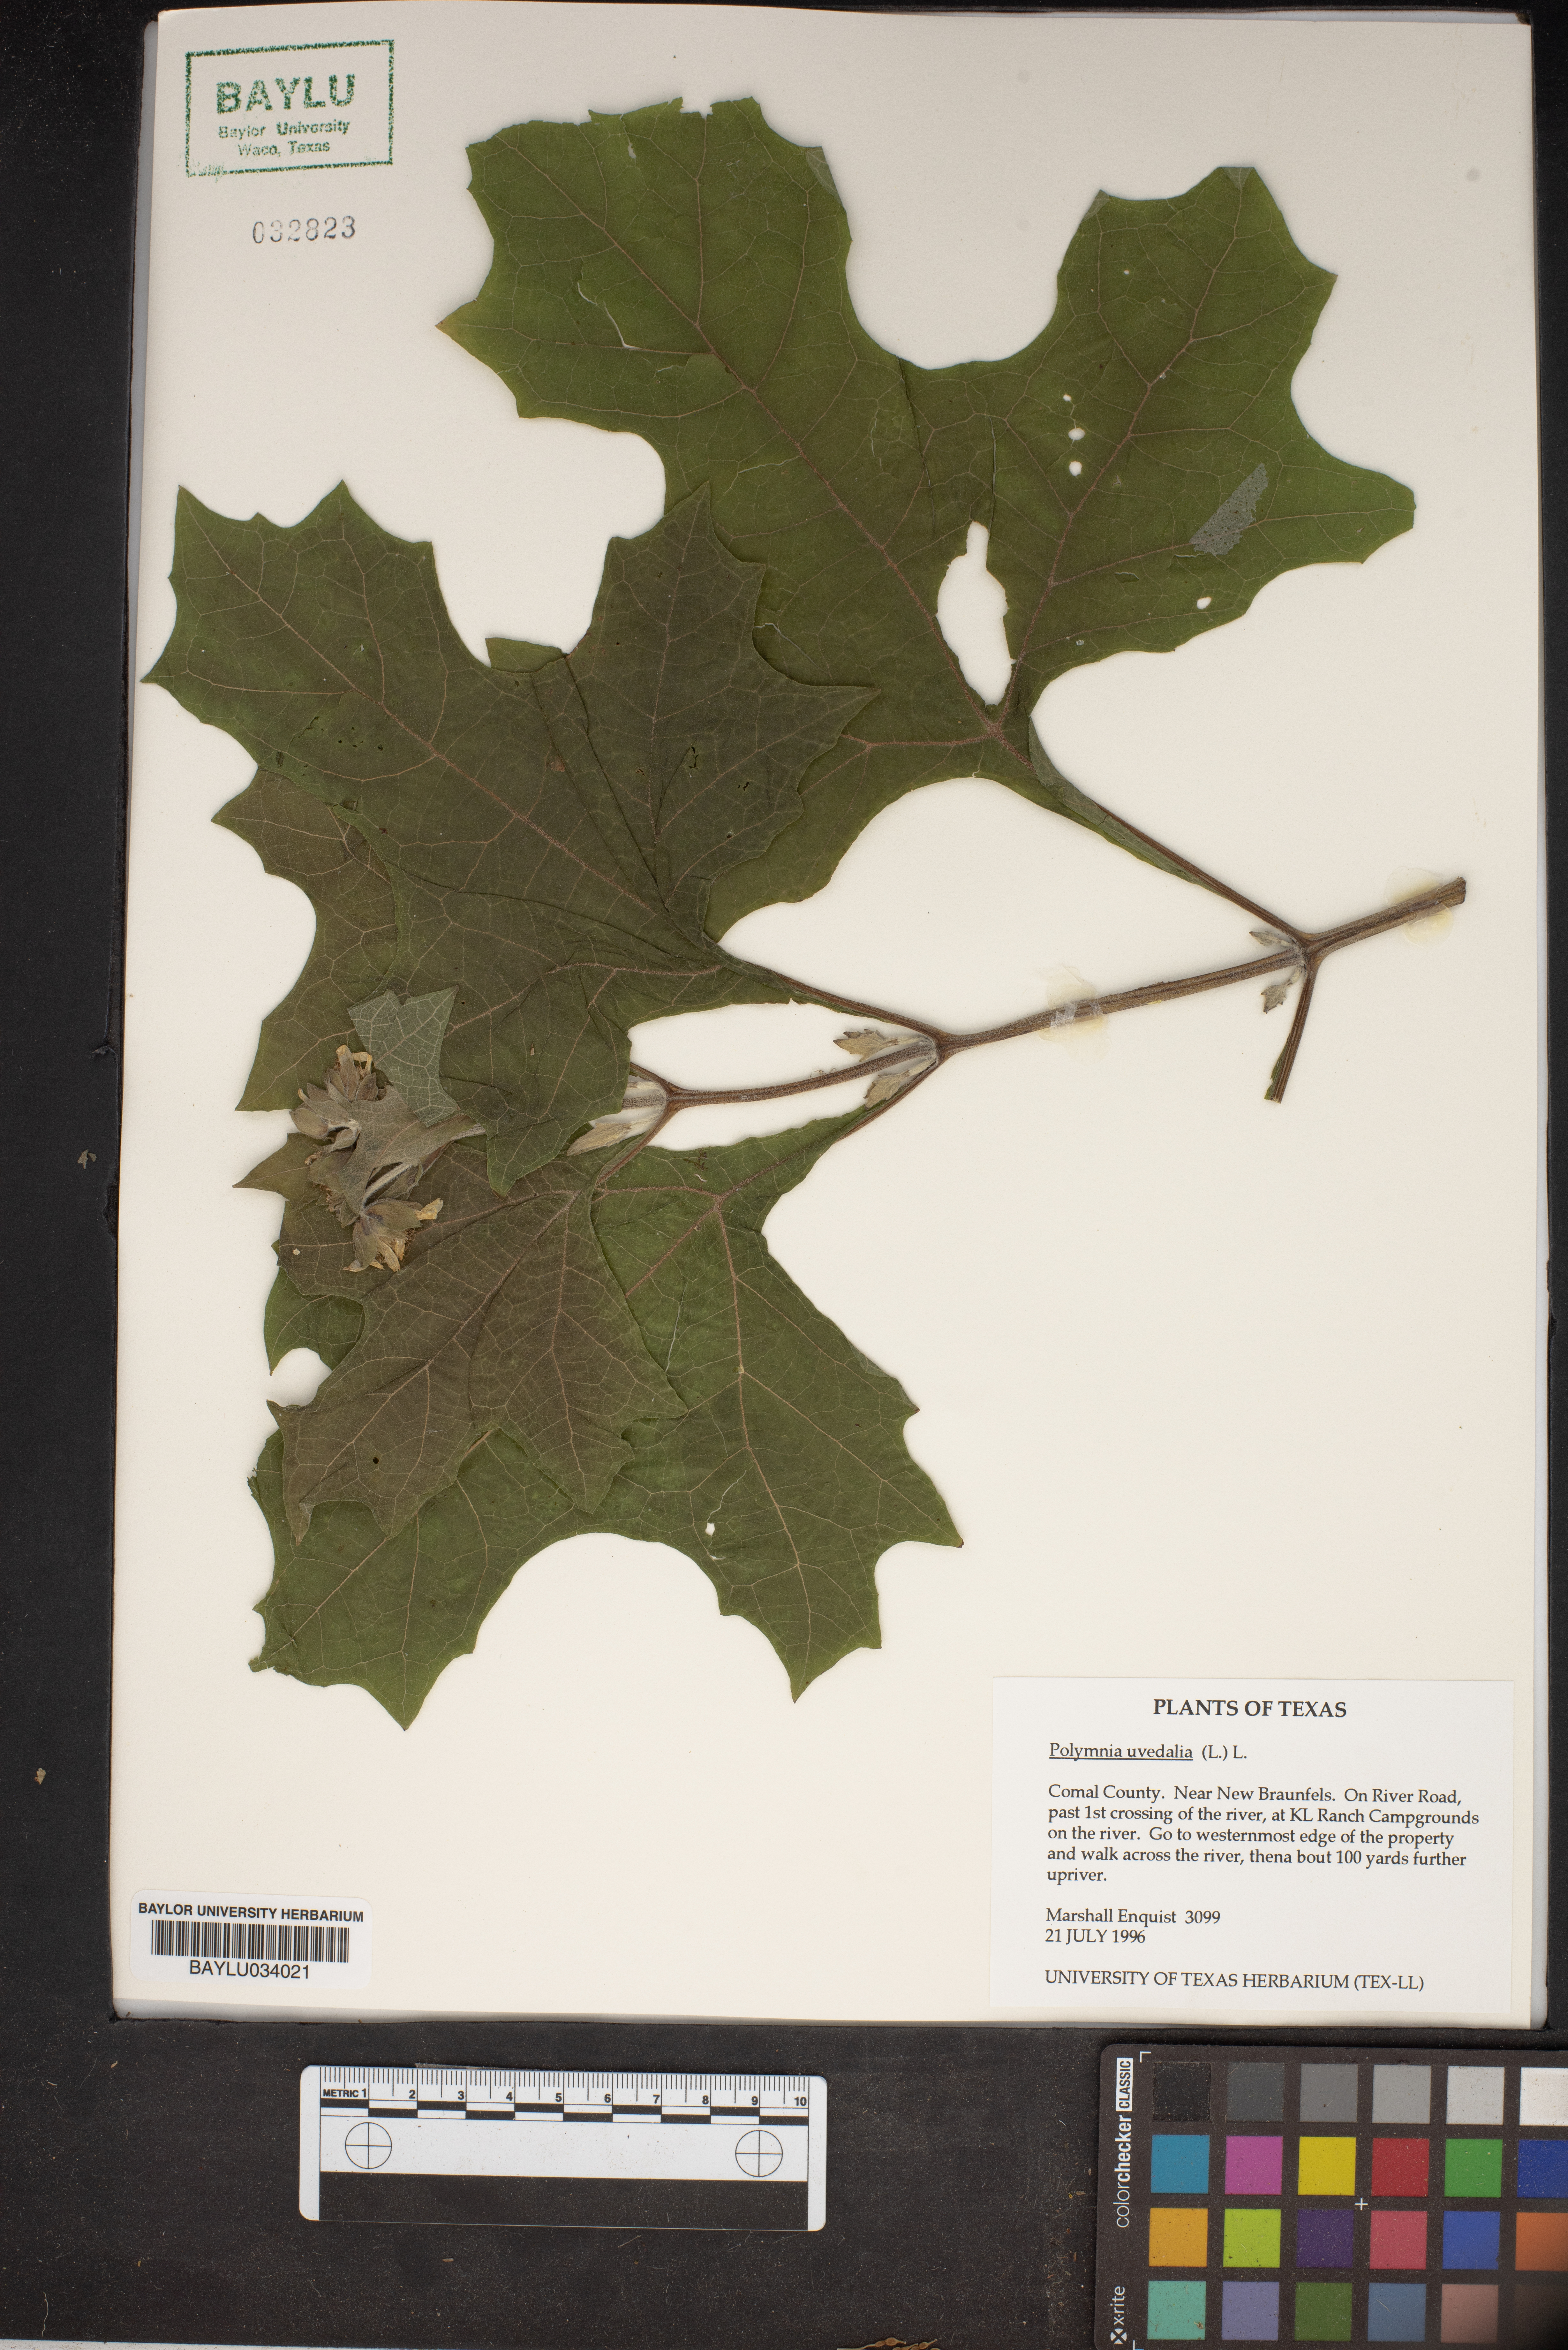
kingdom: Plantae
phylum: Tracheophyta
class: Magnoliopsida
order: Asterales
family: Asteraceae
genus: Smallanthus
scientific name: Smallanthus uvedalia
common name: Bear's-foot
